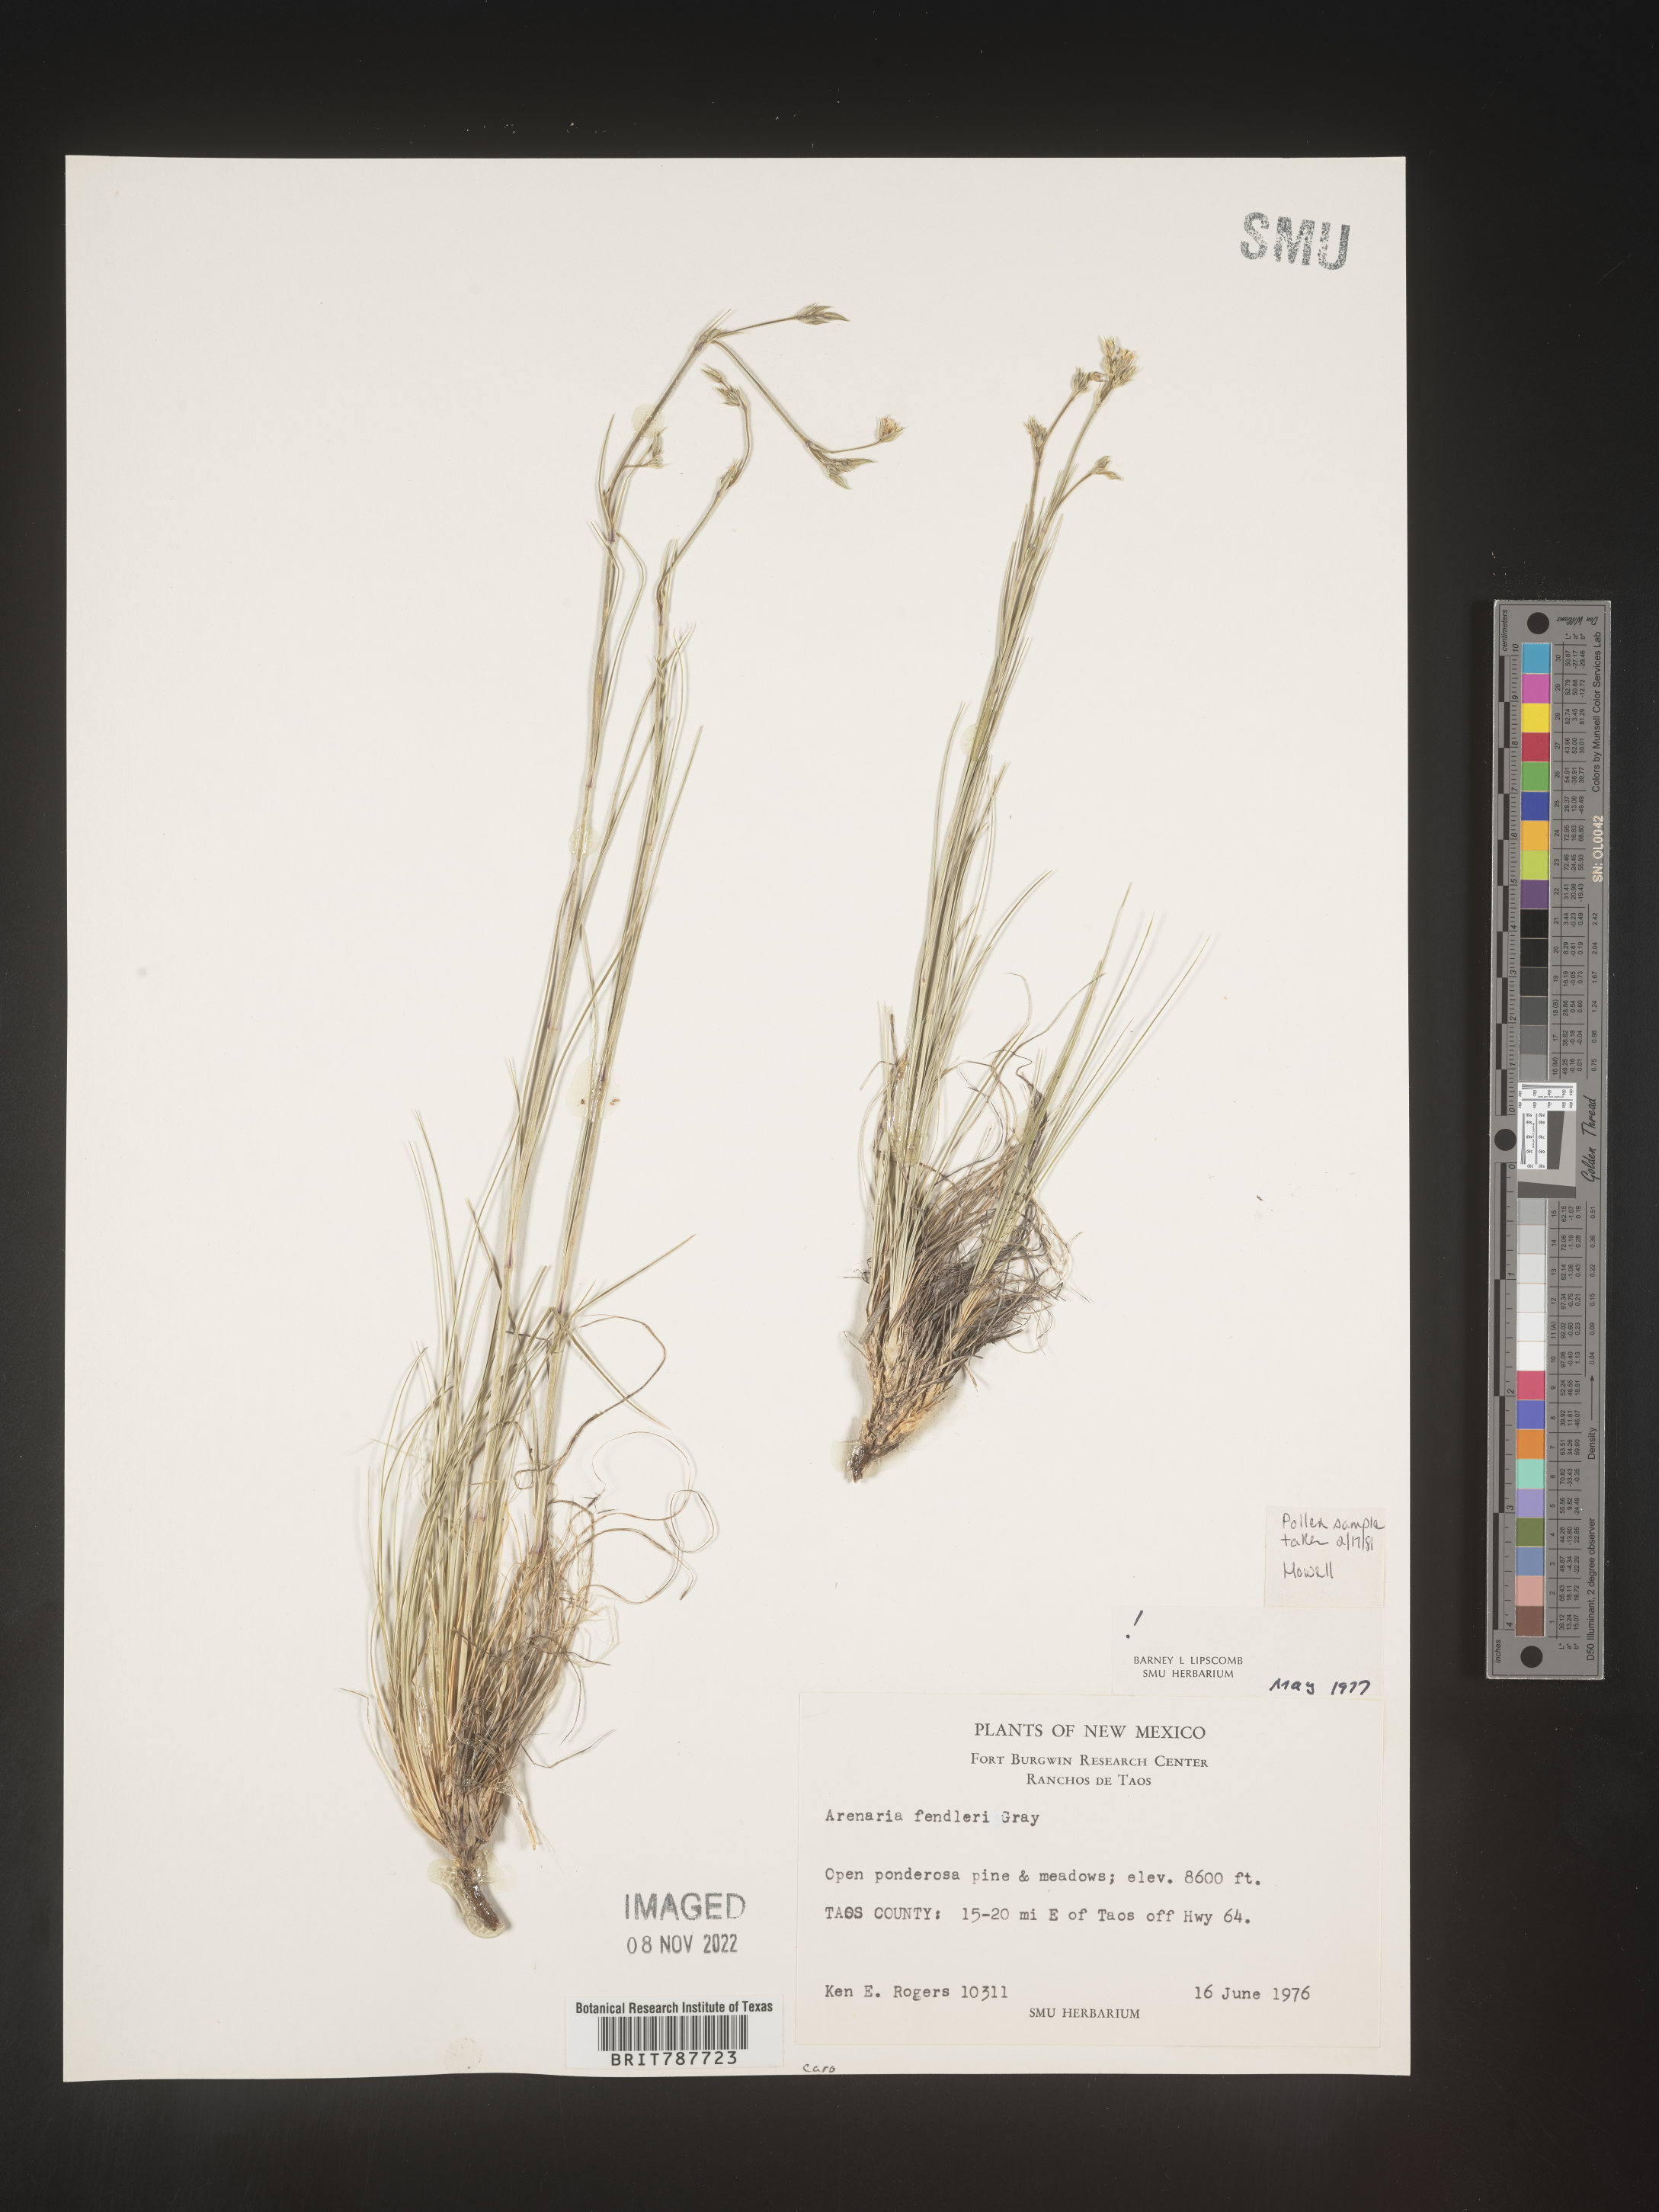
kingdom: Plantae
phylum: Tracheophyta
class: Magnoliopsida
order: Caryophyllales
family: Caryophyllaceae
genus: Arenaria
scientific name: Arenaria
